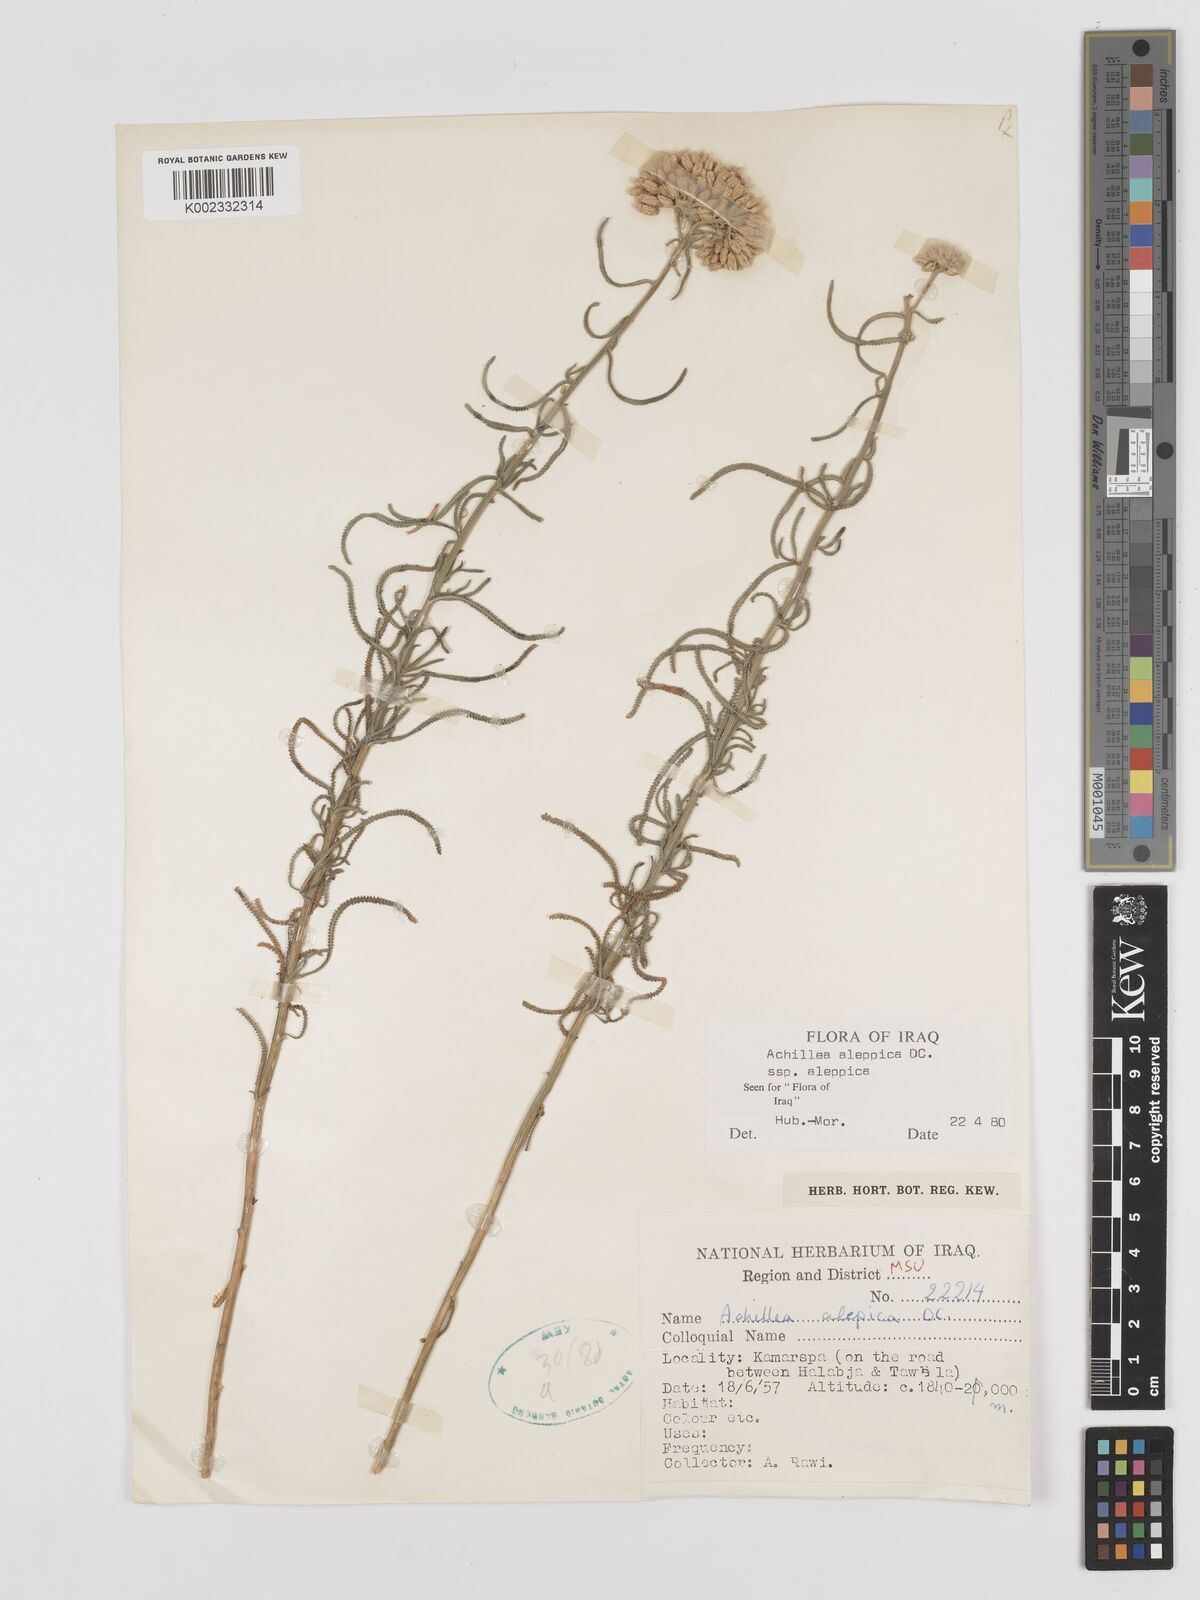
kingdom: Plantae
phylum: Tracheophyta
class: Magnoliopsida
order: Asterales
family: Asteraceae
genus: Achillea
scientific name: Achillea aleppica
